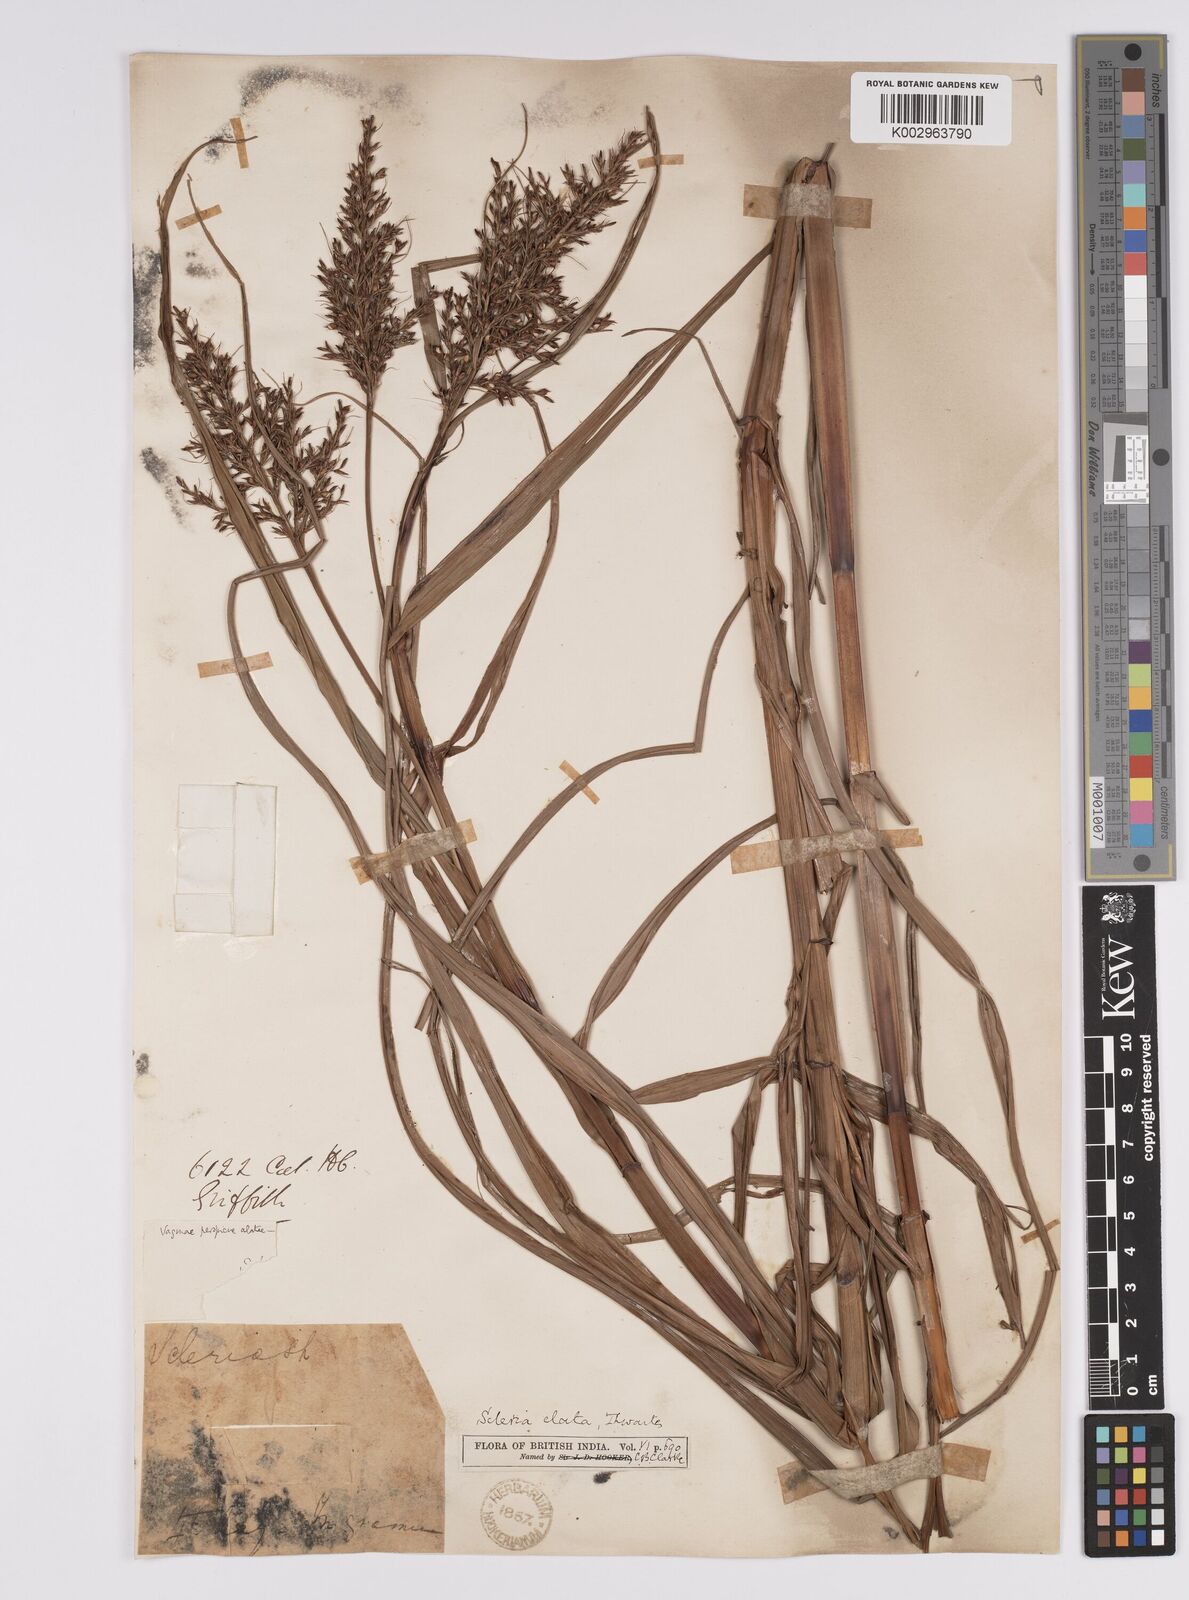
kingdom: Plantae
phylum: Tracheophyta
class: Liliopsida
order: Poales
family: Cyperaceae
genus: Scleria
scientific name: Scleria terrestris
